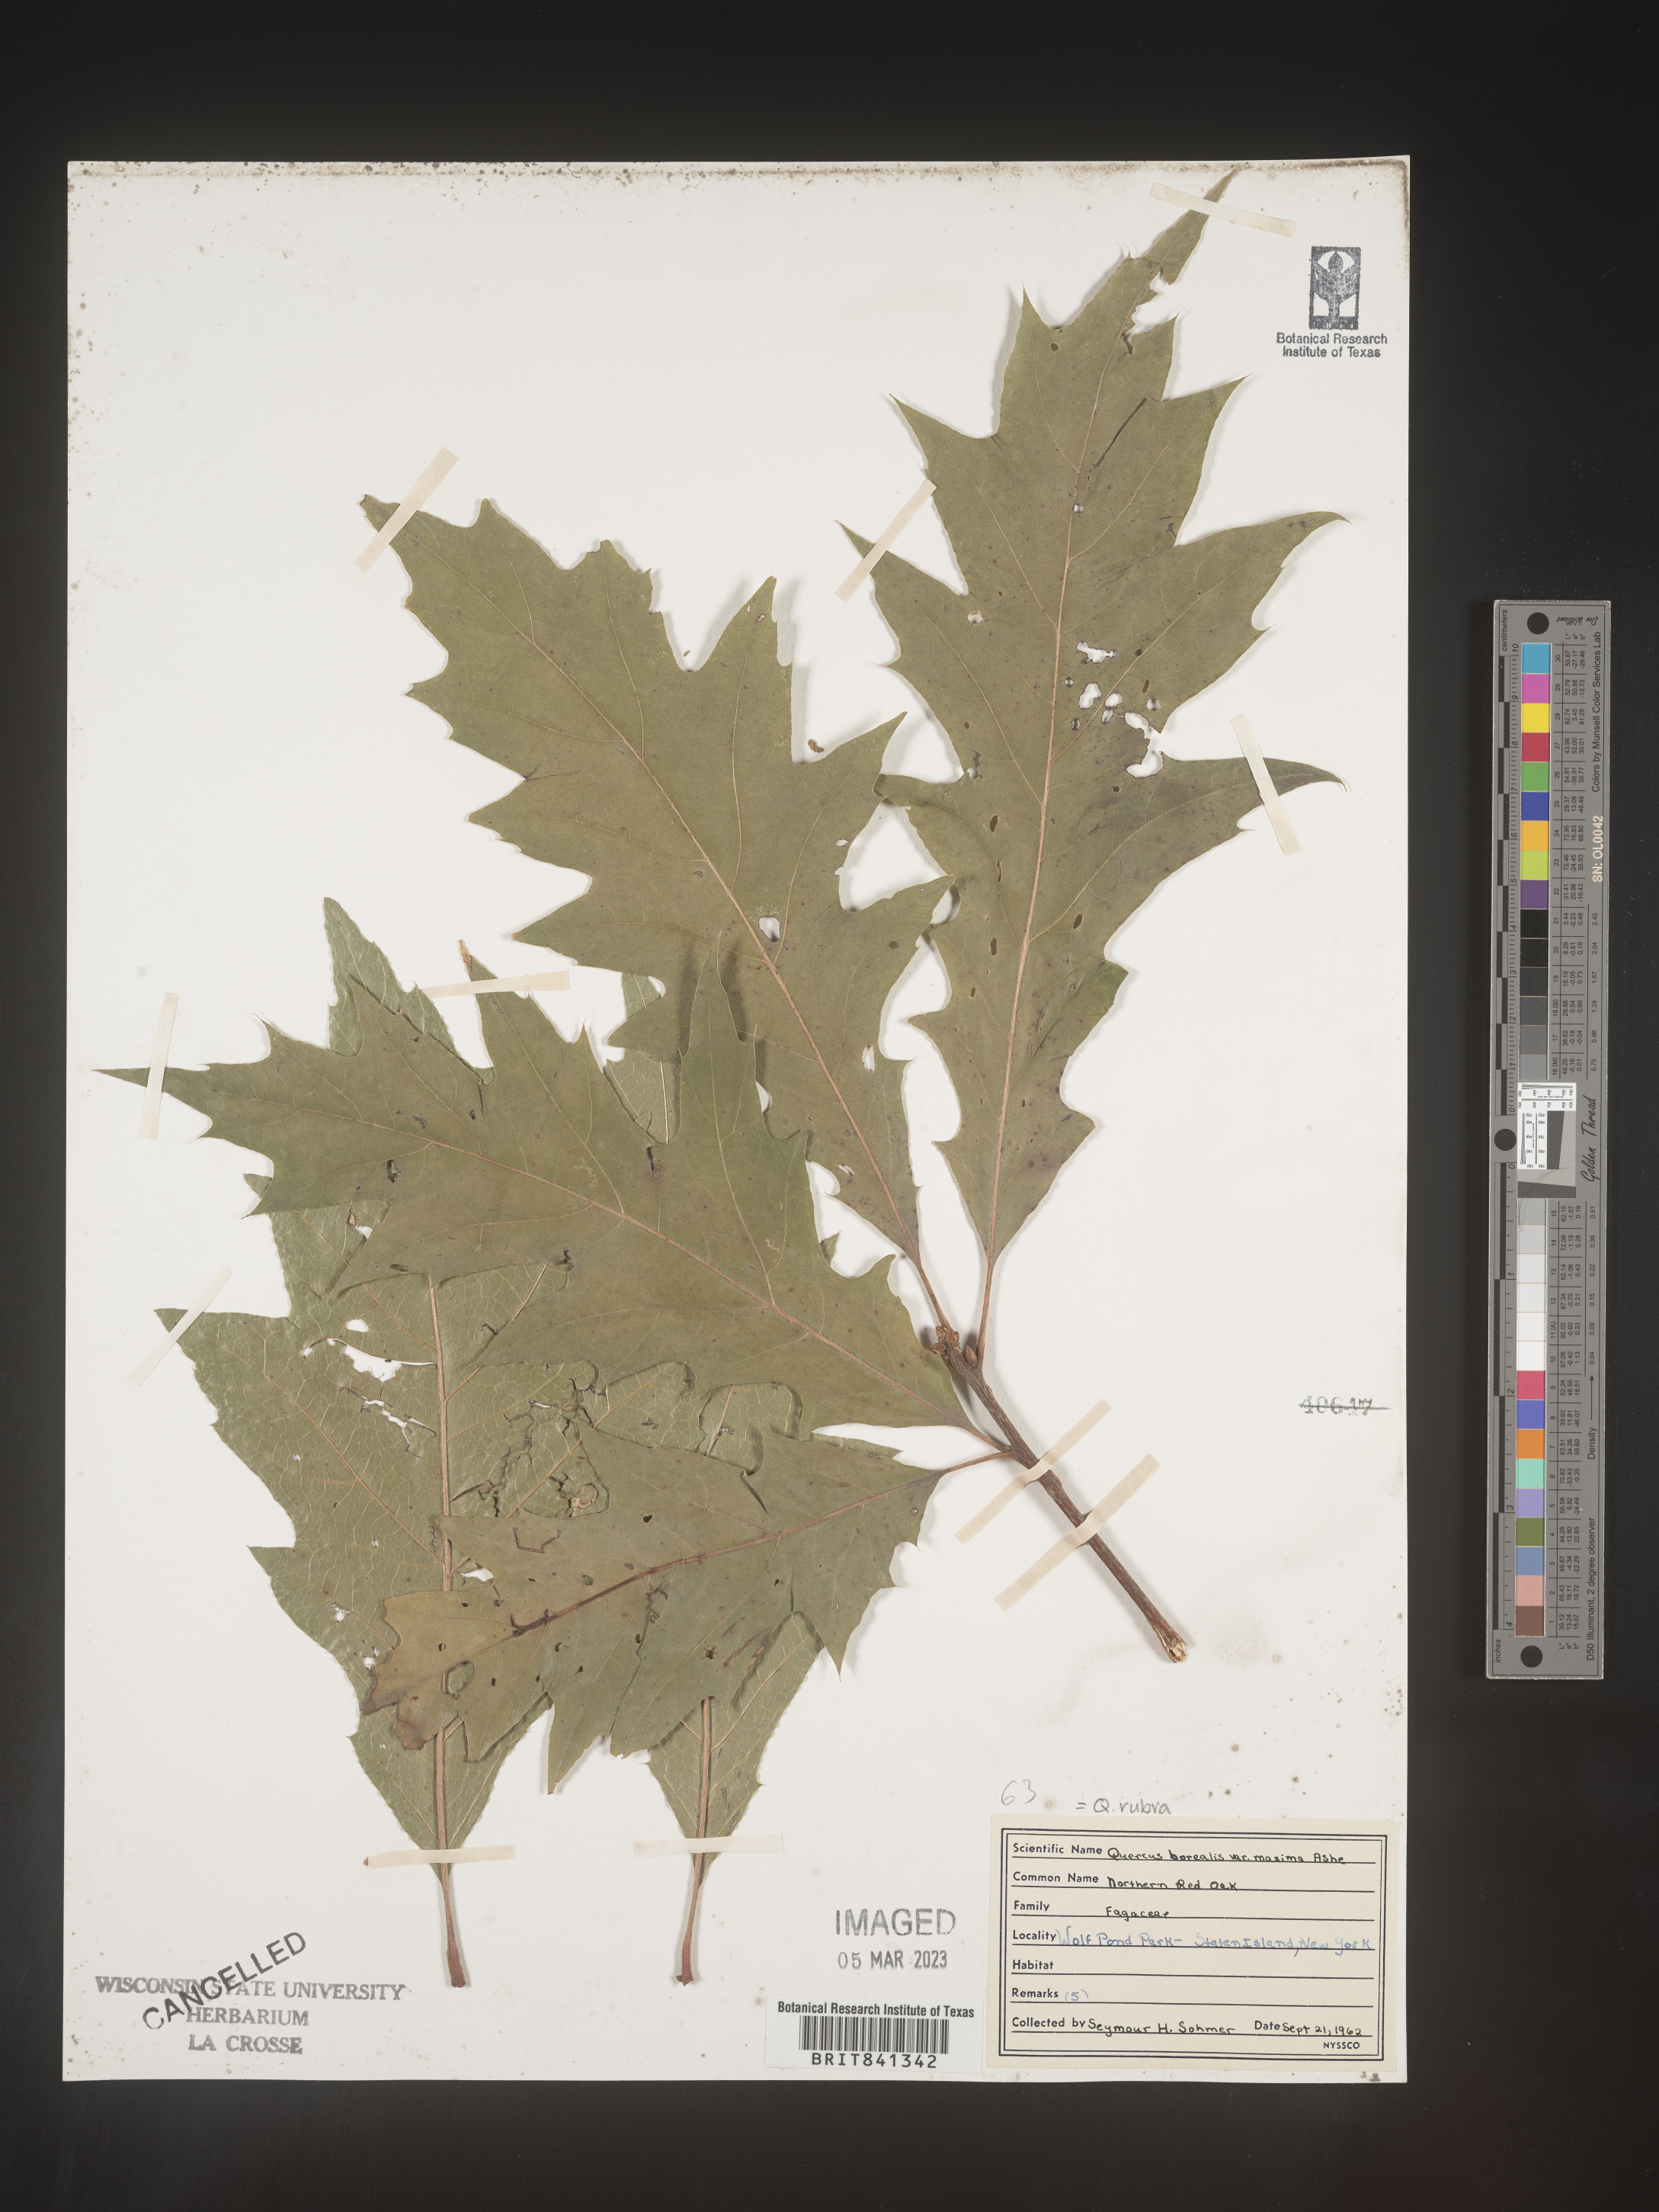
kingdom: Plantae
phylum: Tracheophyta
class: Magnoliopsida
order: Fagales
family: Fagaceae
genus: Quercus
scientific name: Quercus rubra
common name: Red oak
